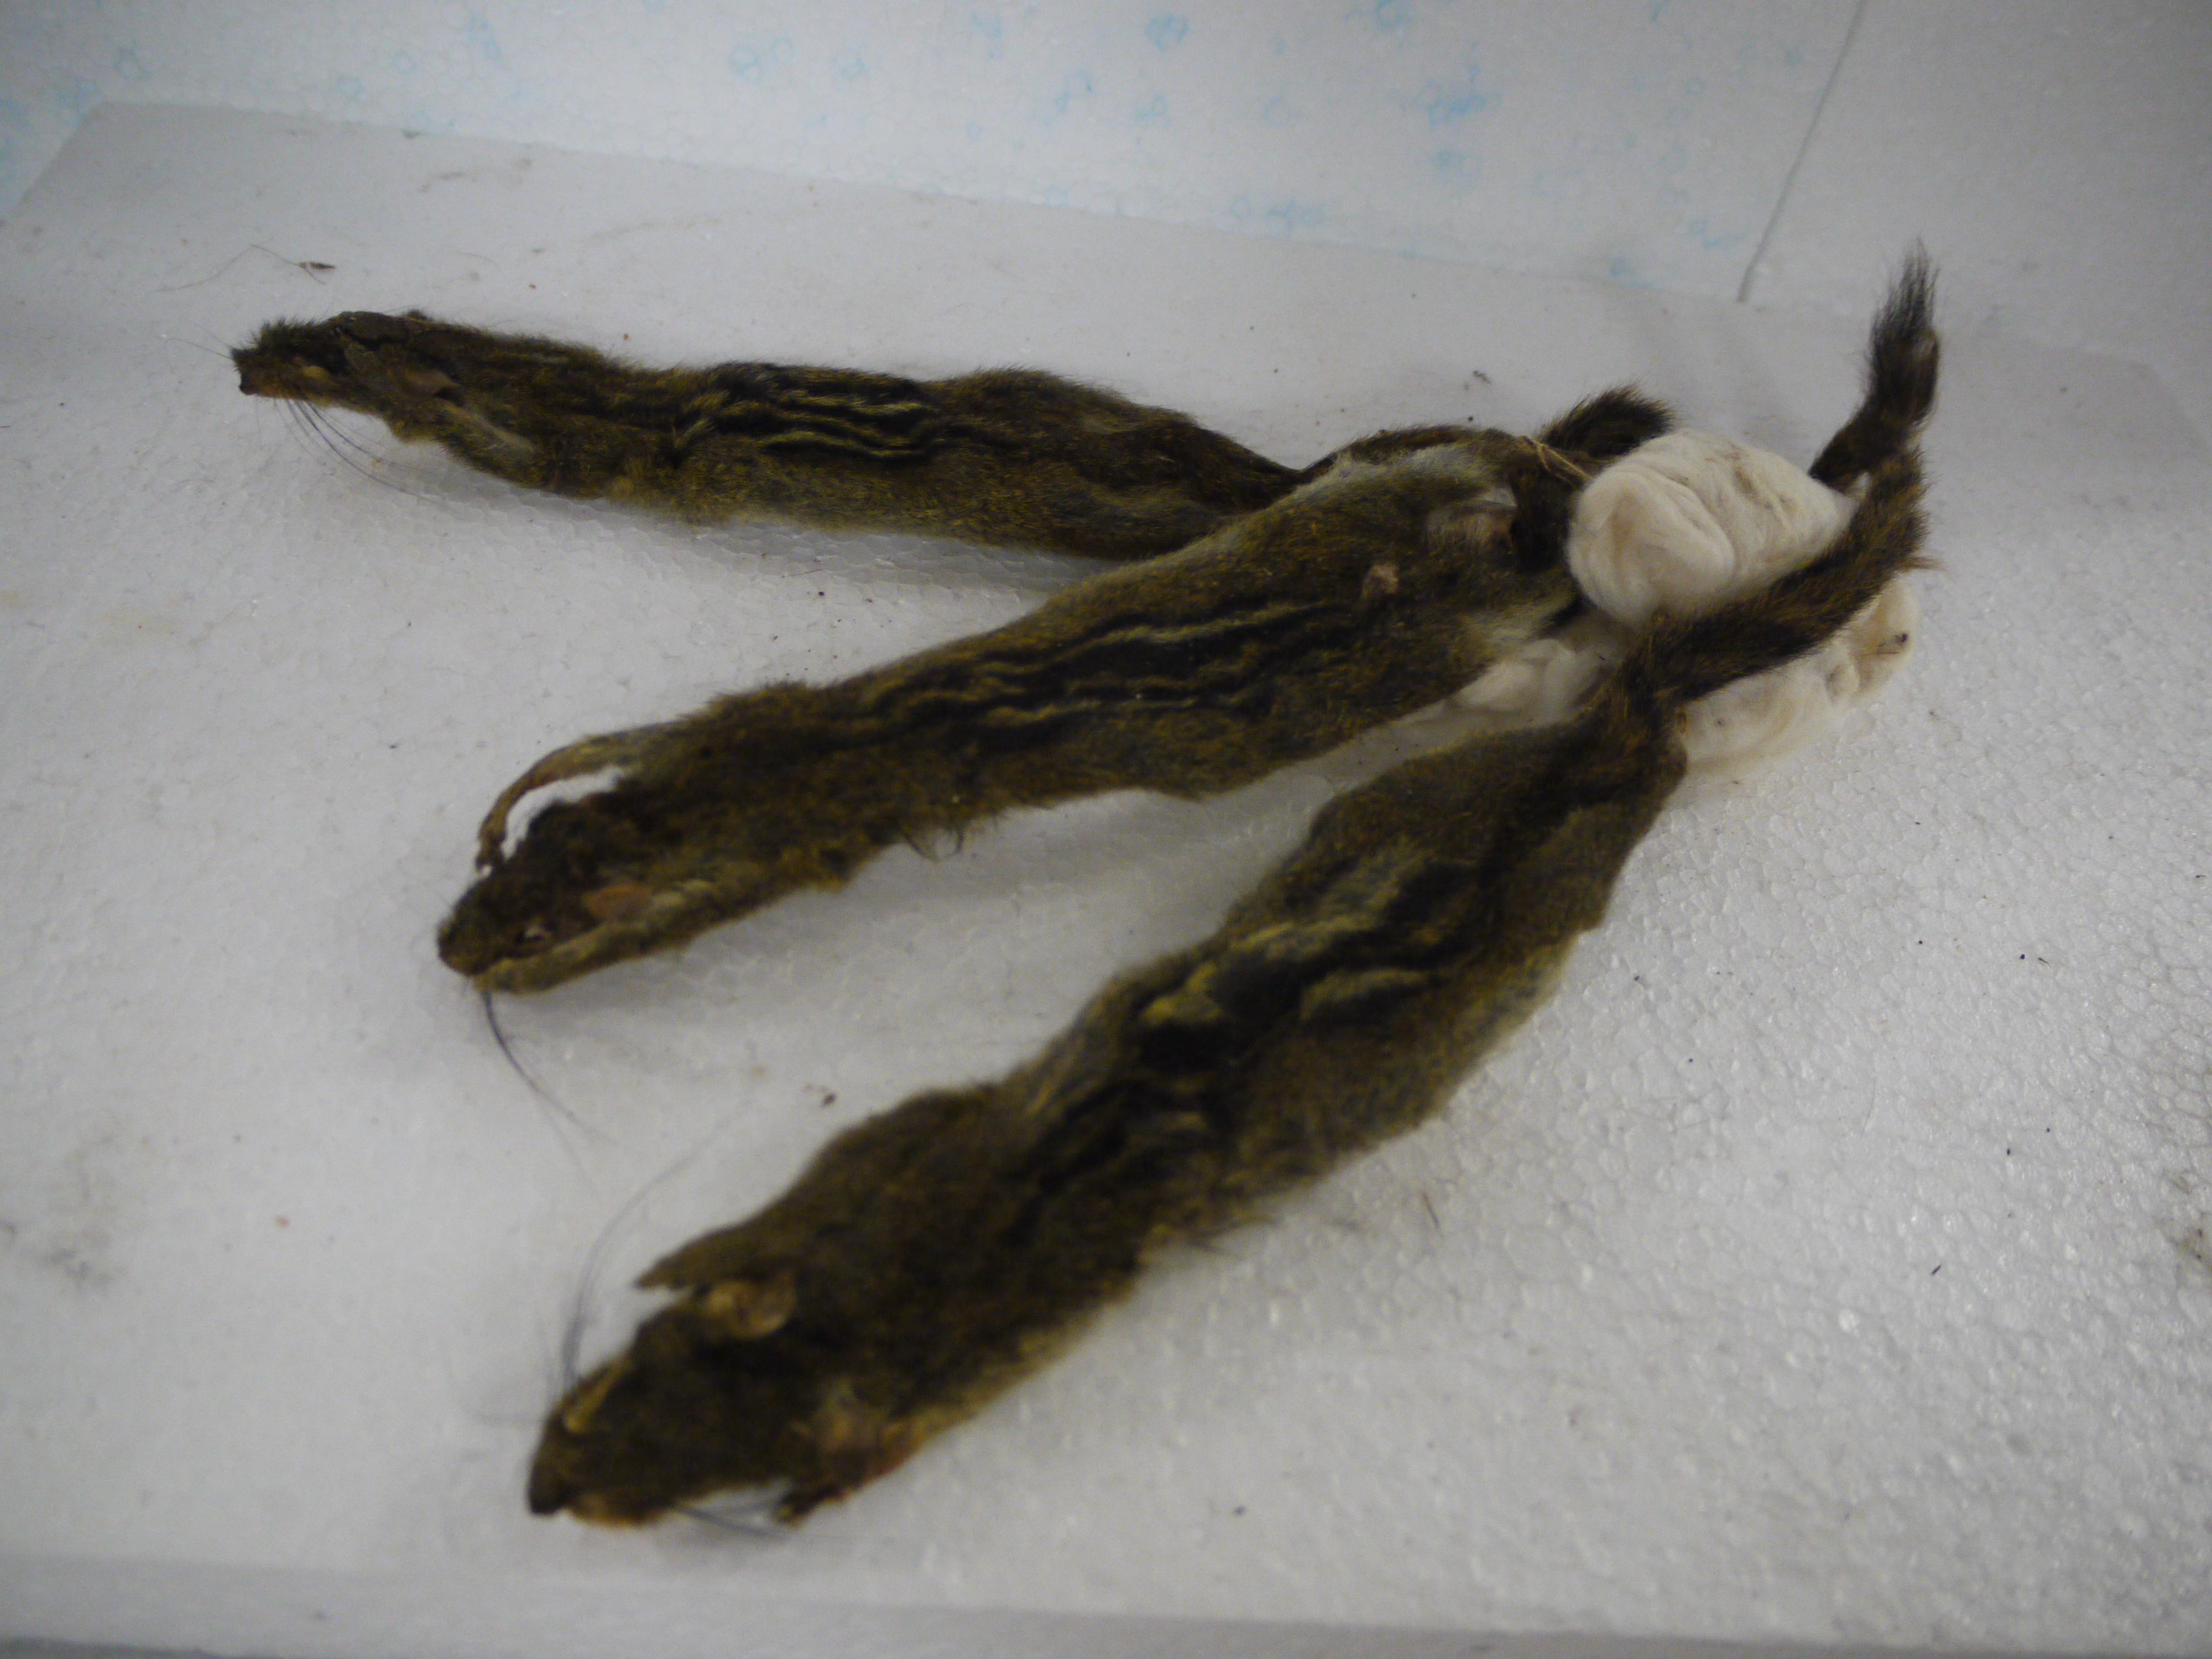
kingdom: Animalia
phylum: Chordata
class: Mammalia
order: Rodentia
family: Sciuridae
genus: Funisciurus
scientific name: Funisciurus lemniscatus
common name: Ribboned rope squirrel
